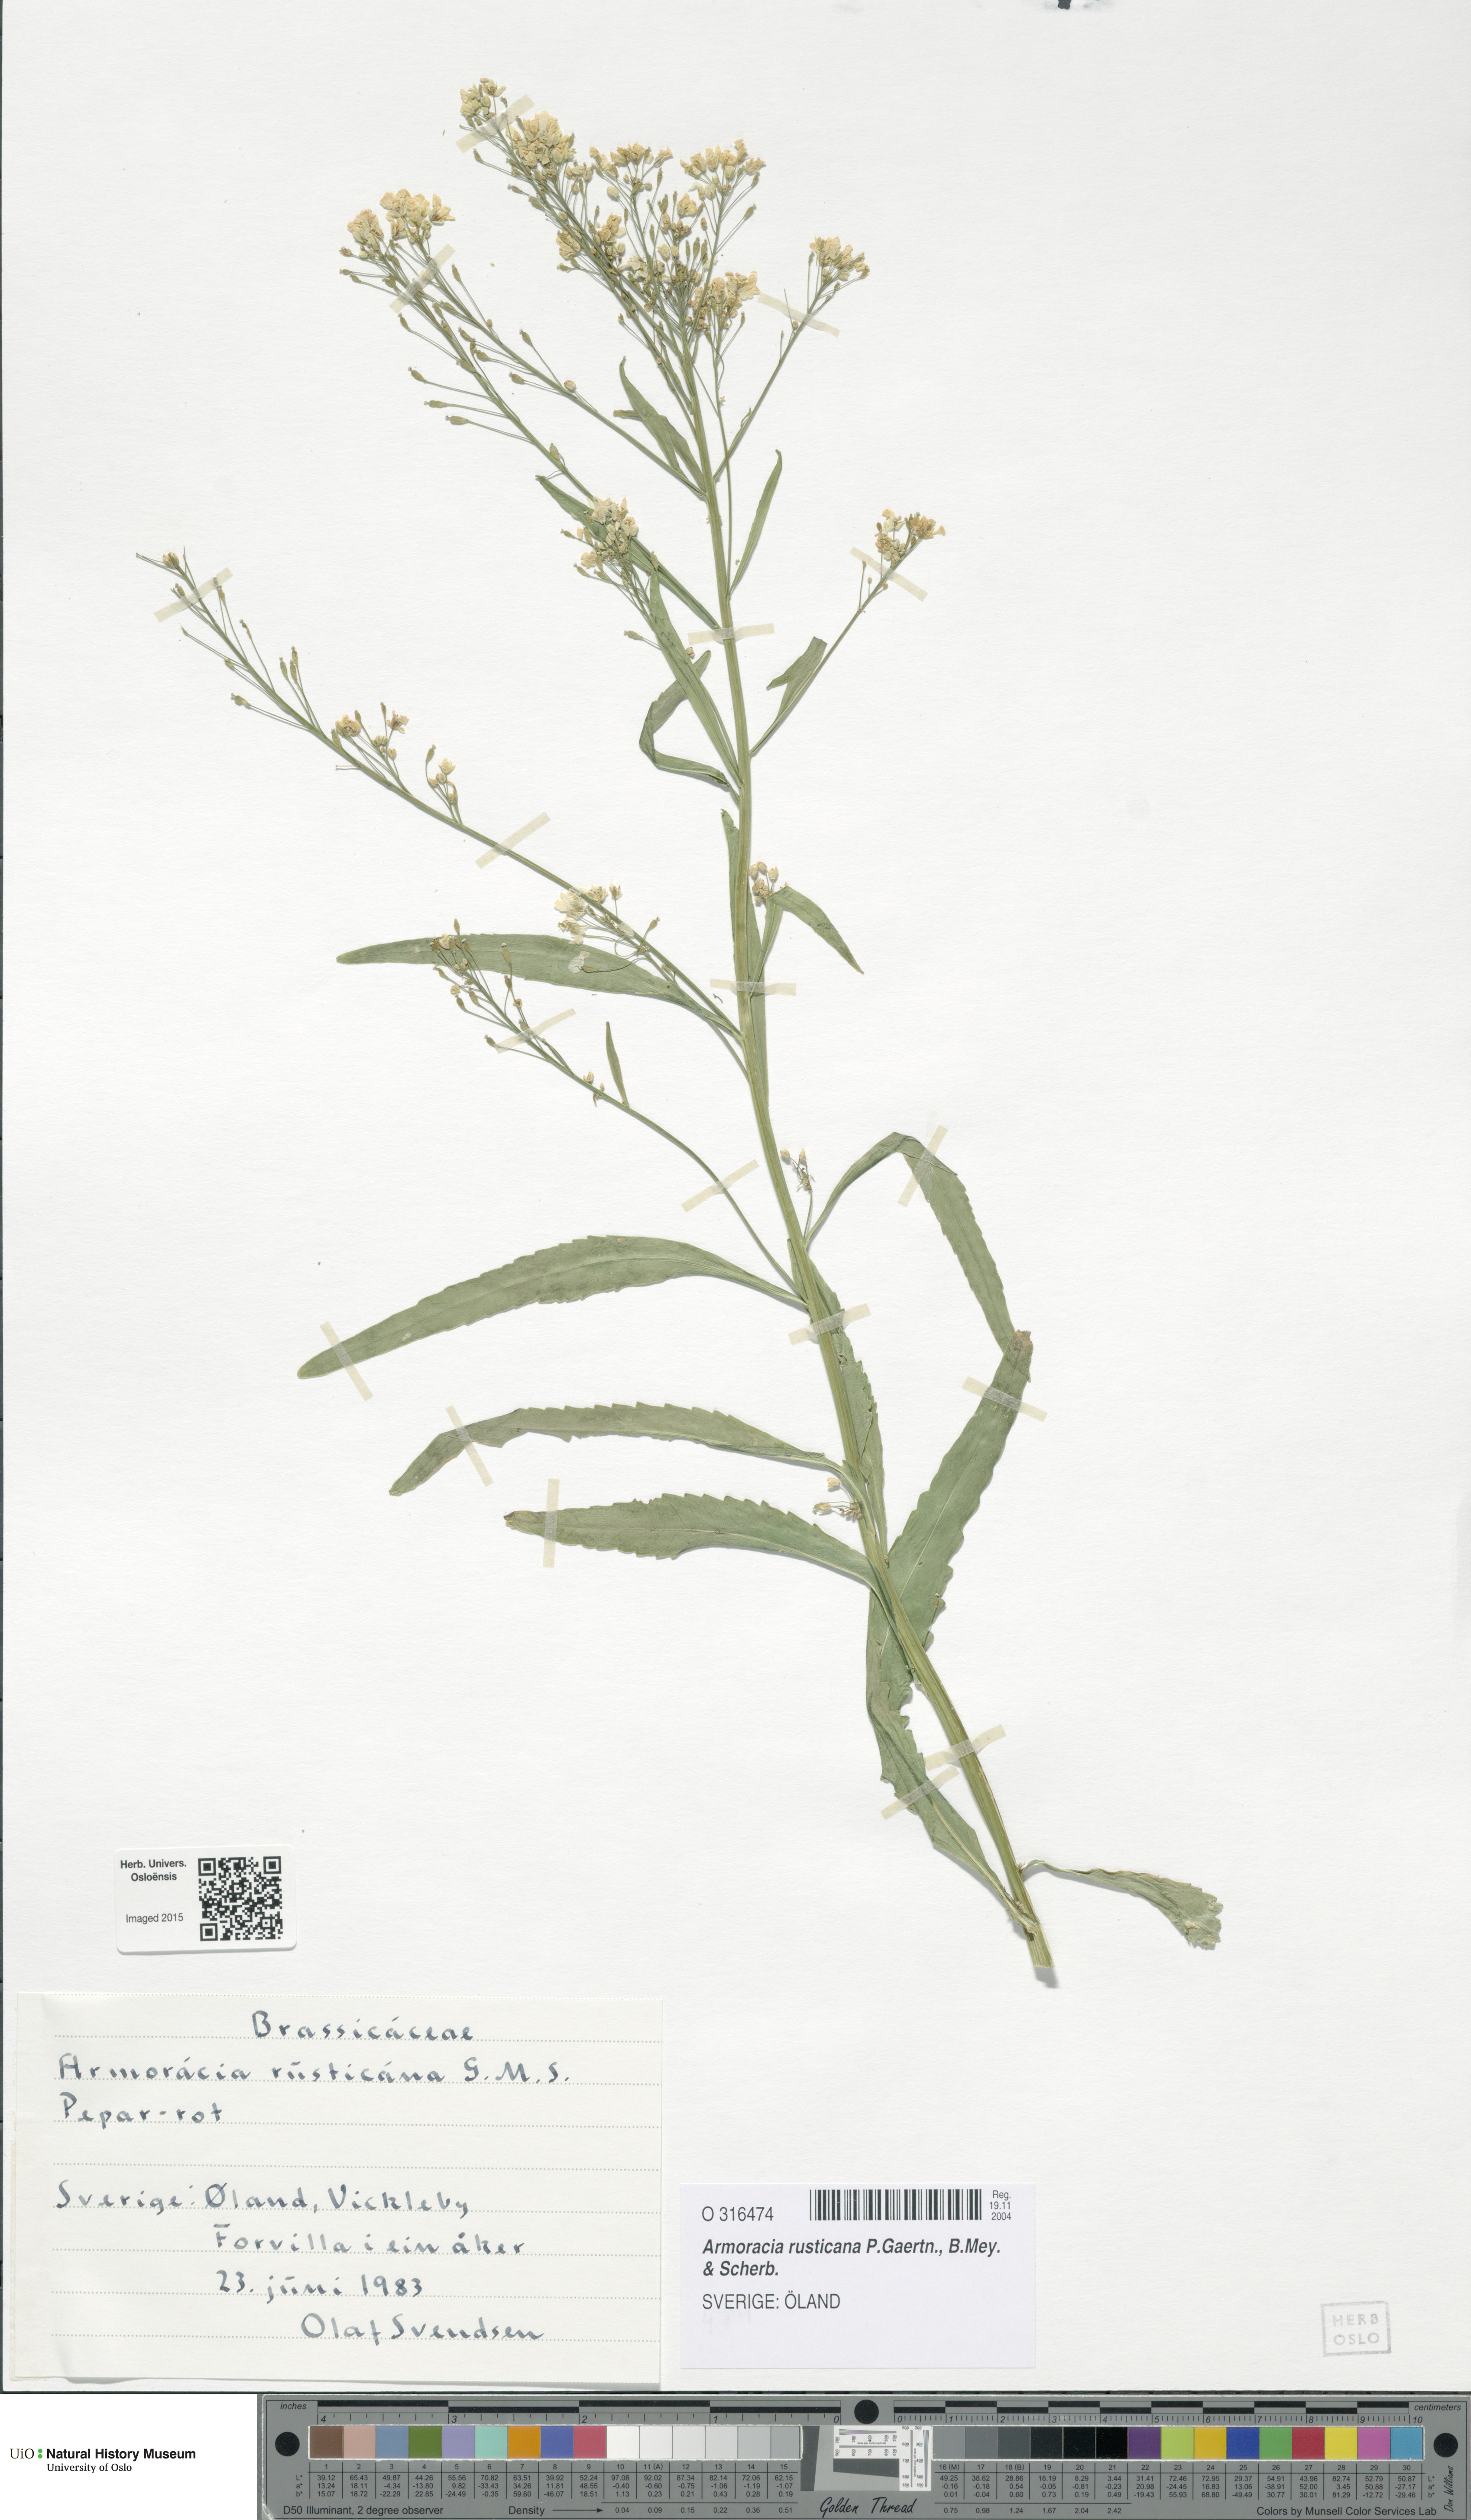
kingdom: Plantae
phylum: Tracheophyta
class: Magnoliopsida
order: Brassicales
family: Brassicaceae
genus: Armoracia
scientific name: Armoracia rusticana
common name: Horseradish
